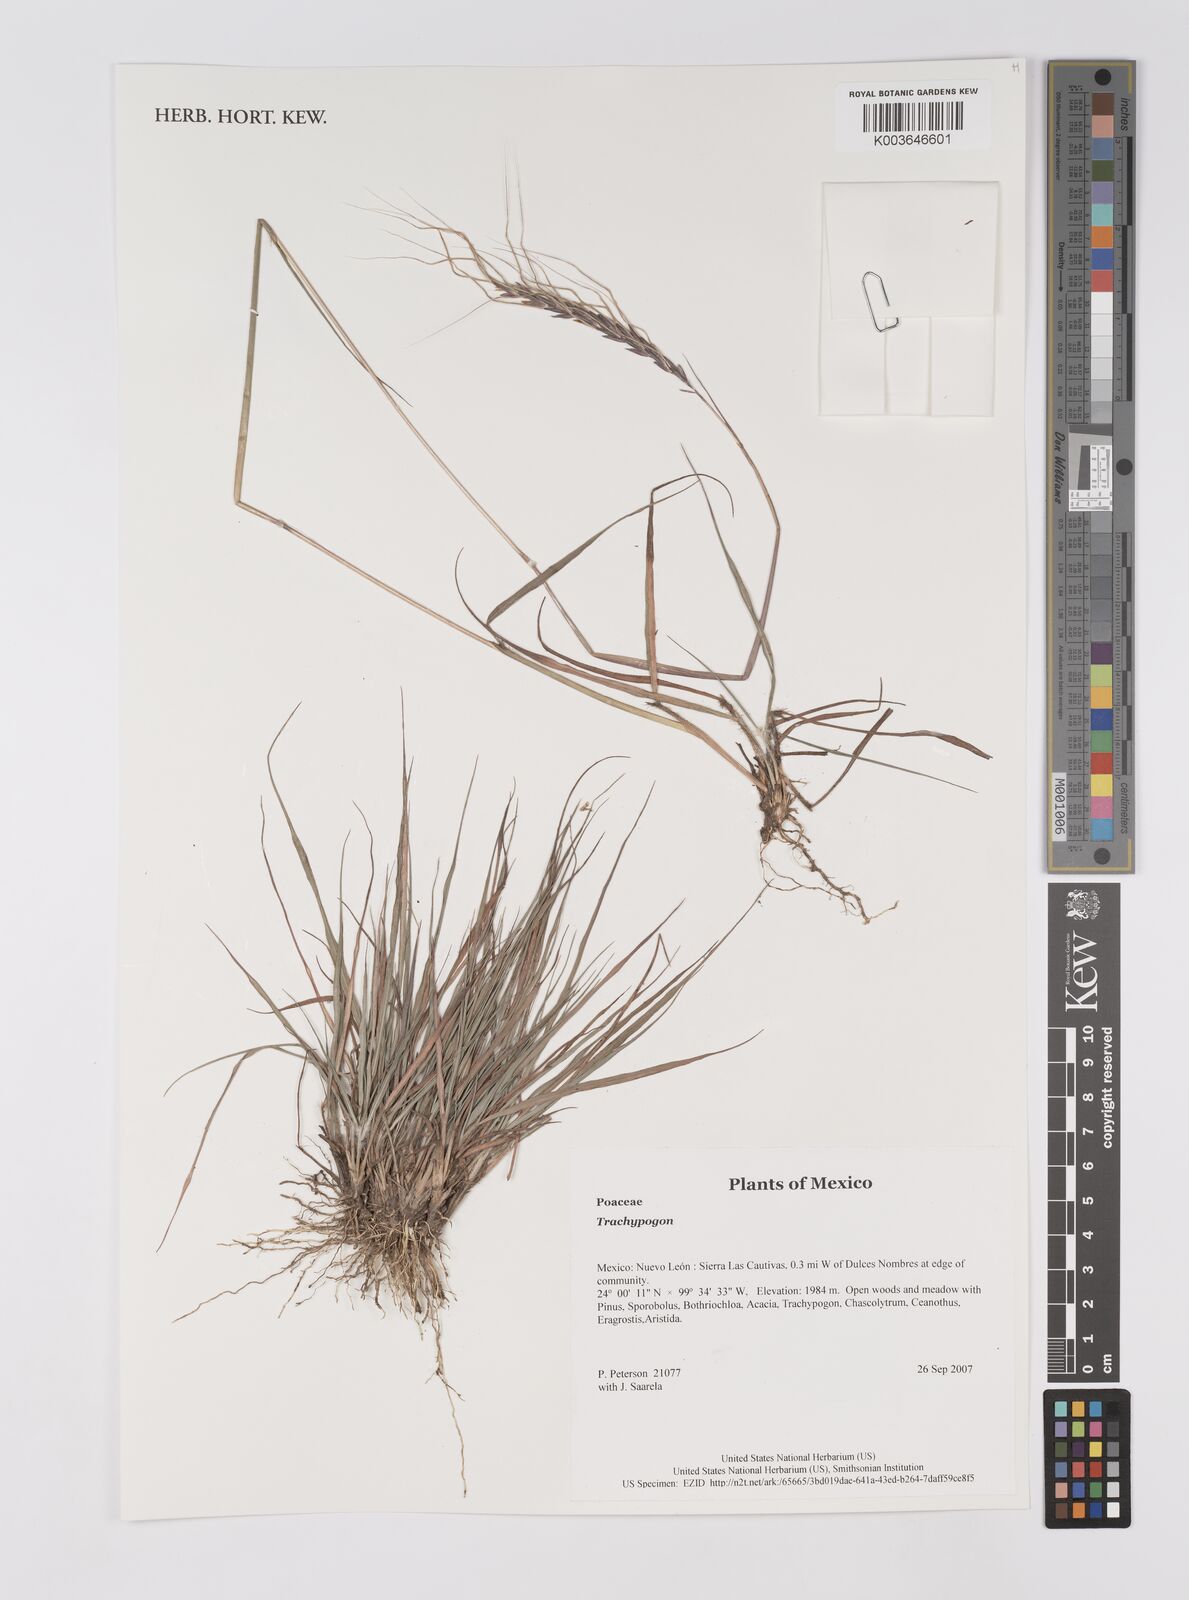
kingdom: Plantae
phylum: Tracheophyta
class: Liliopsida
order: Poales
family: Poaceae
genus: Trachypogon
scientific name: Trachypogon
